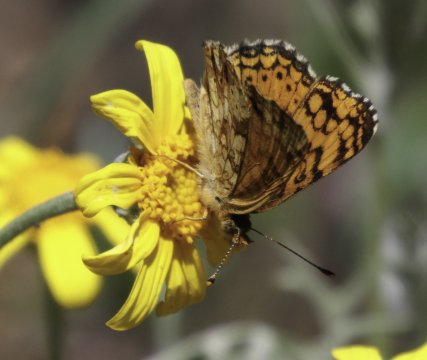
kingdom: Animalia
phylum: Arthropoda
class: Insecta
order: Lepidoptera
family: Nymphalidae
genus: Eresia
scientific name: Eresia aveyrona
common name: Mylitta Crescent
